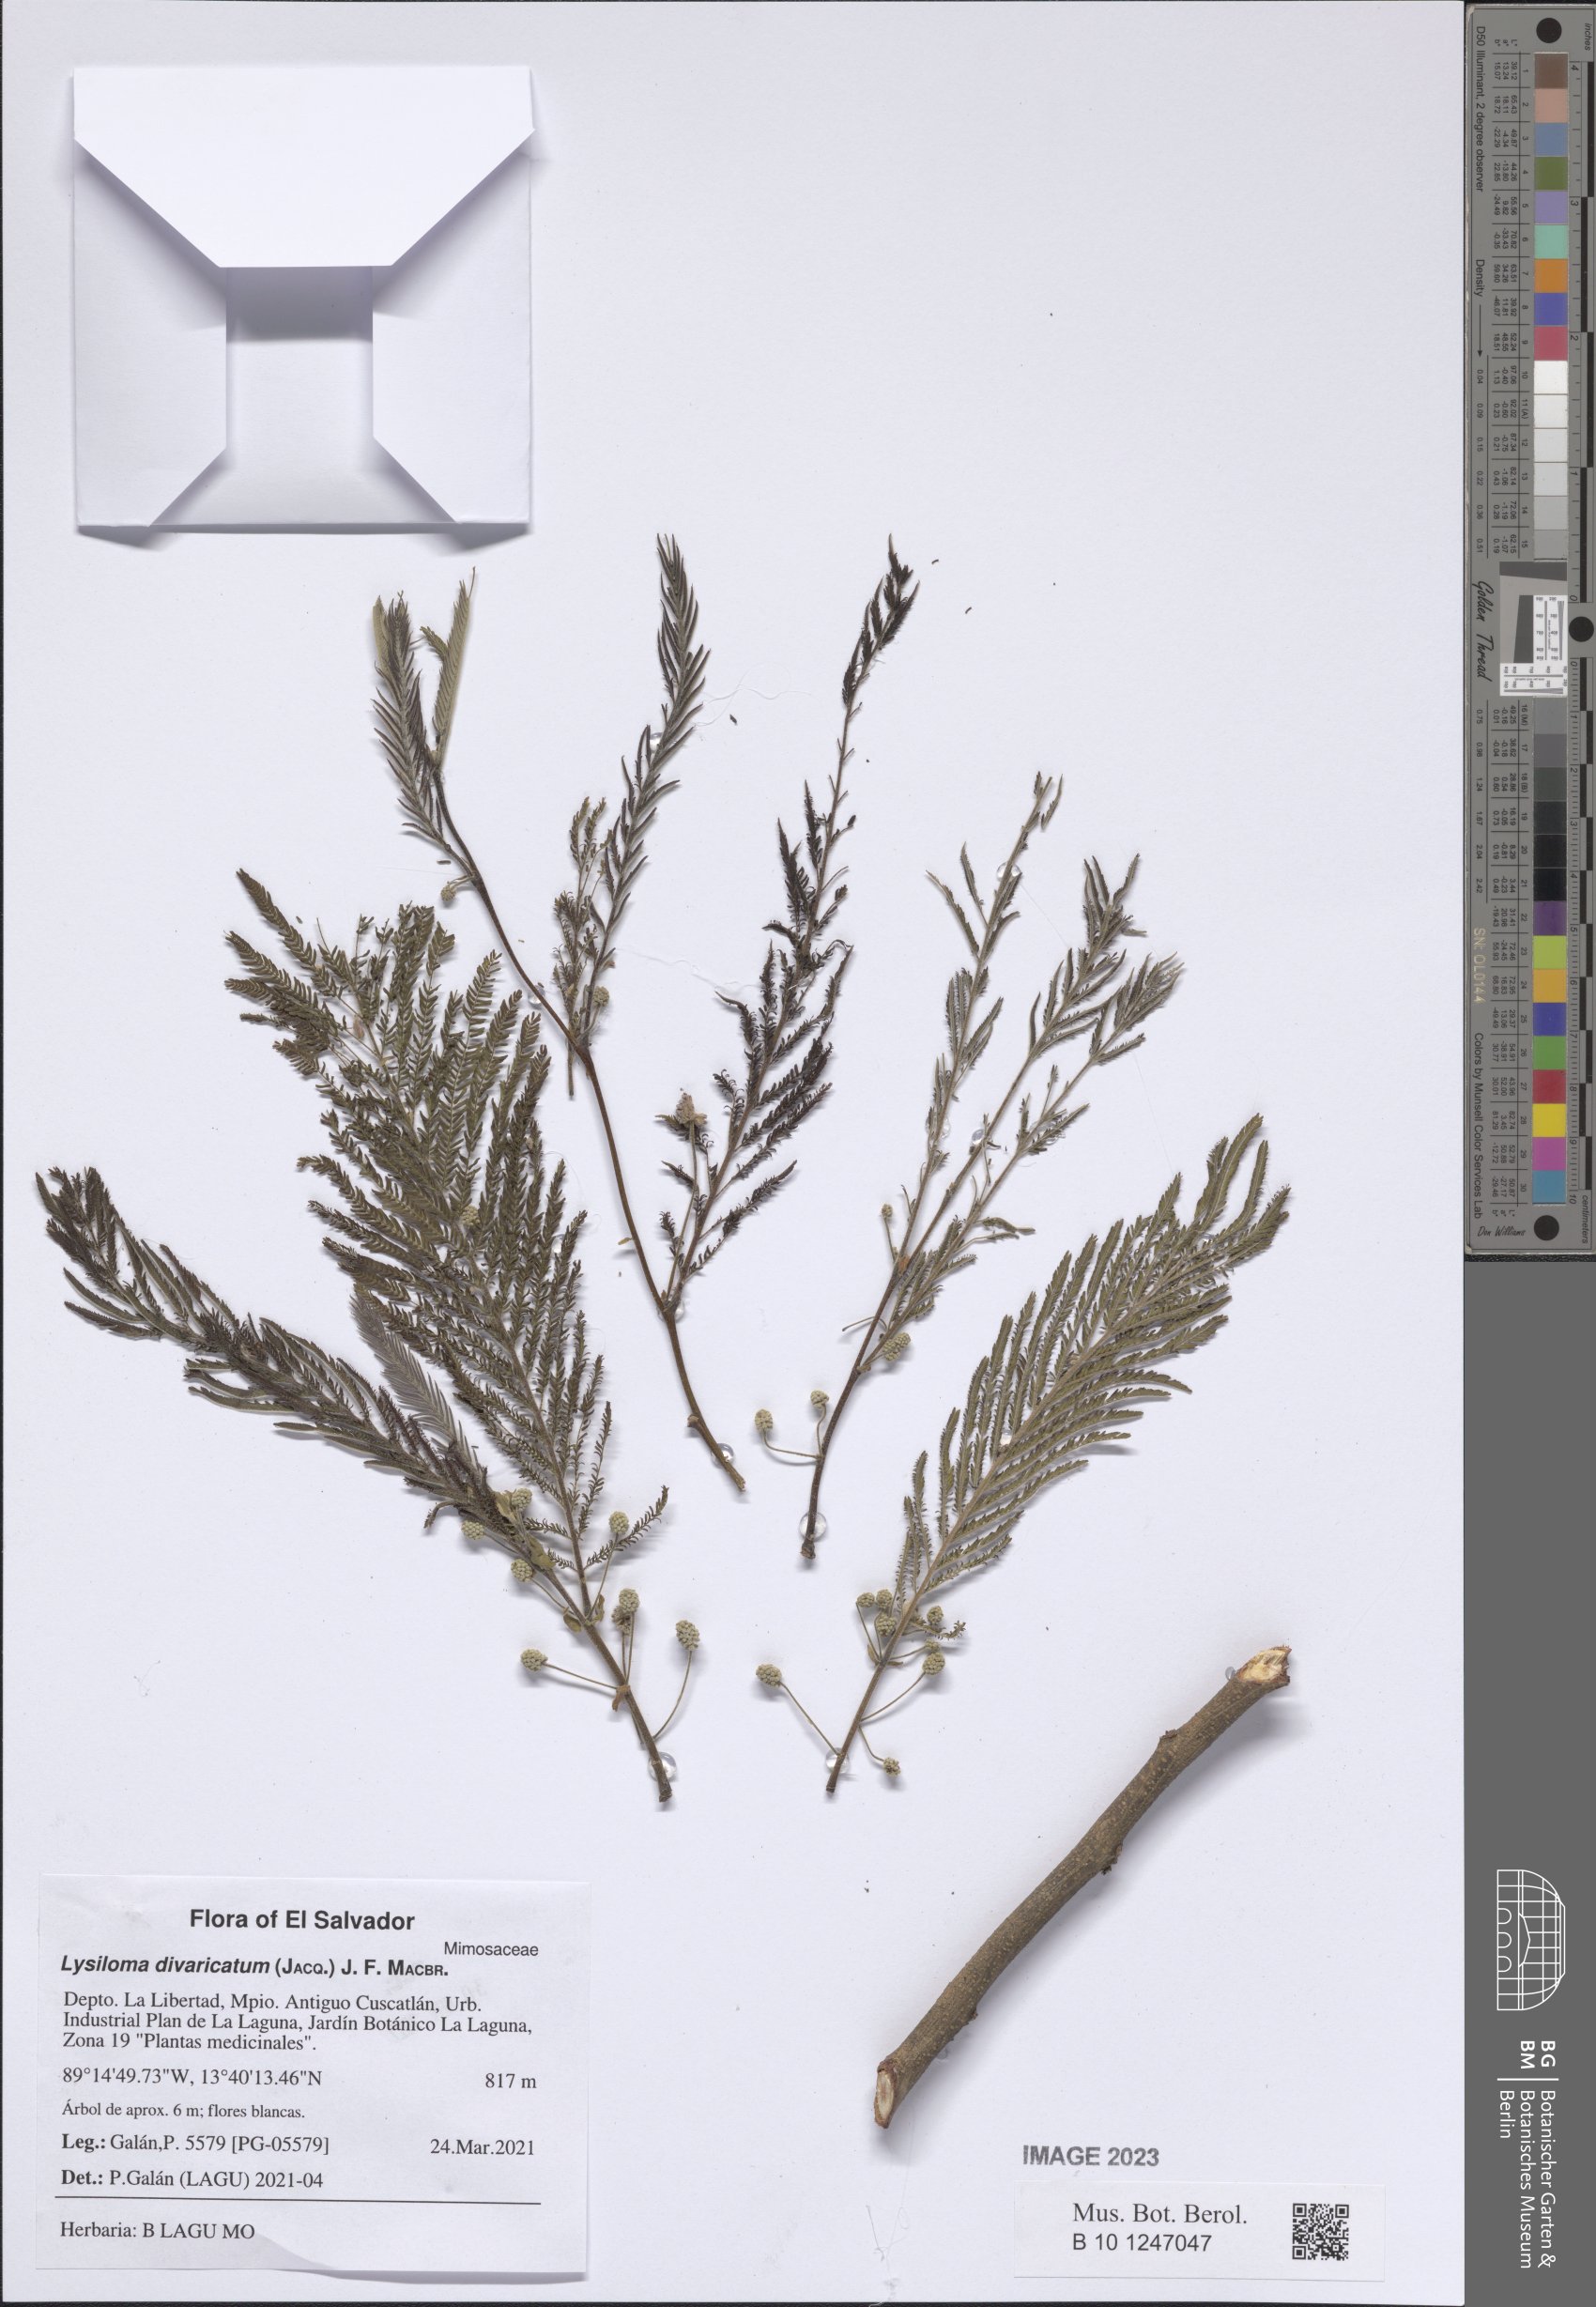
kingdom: Plantae
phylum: Tracheophyta
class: Magnoliopsida
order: Fabales
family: Fabaceae
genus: Lysiloma
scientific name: Lysiloma divaricatum
